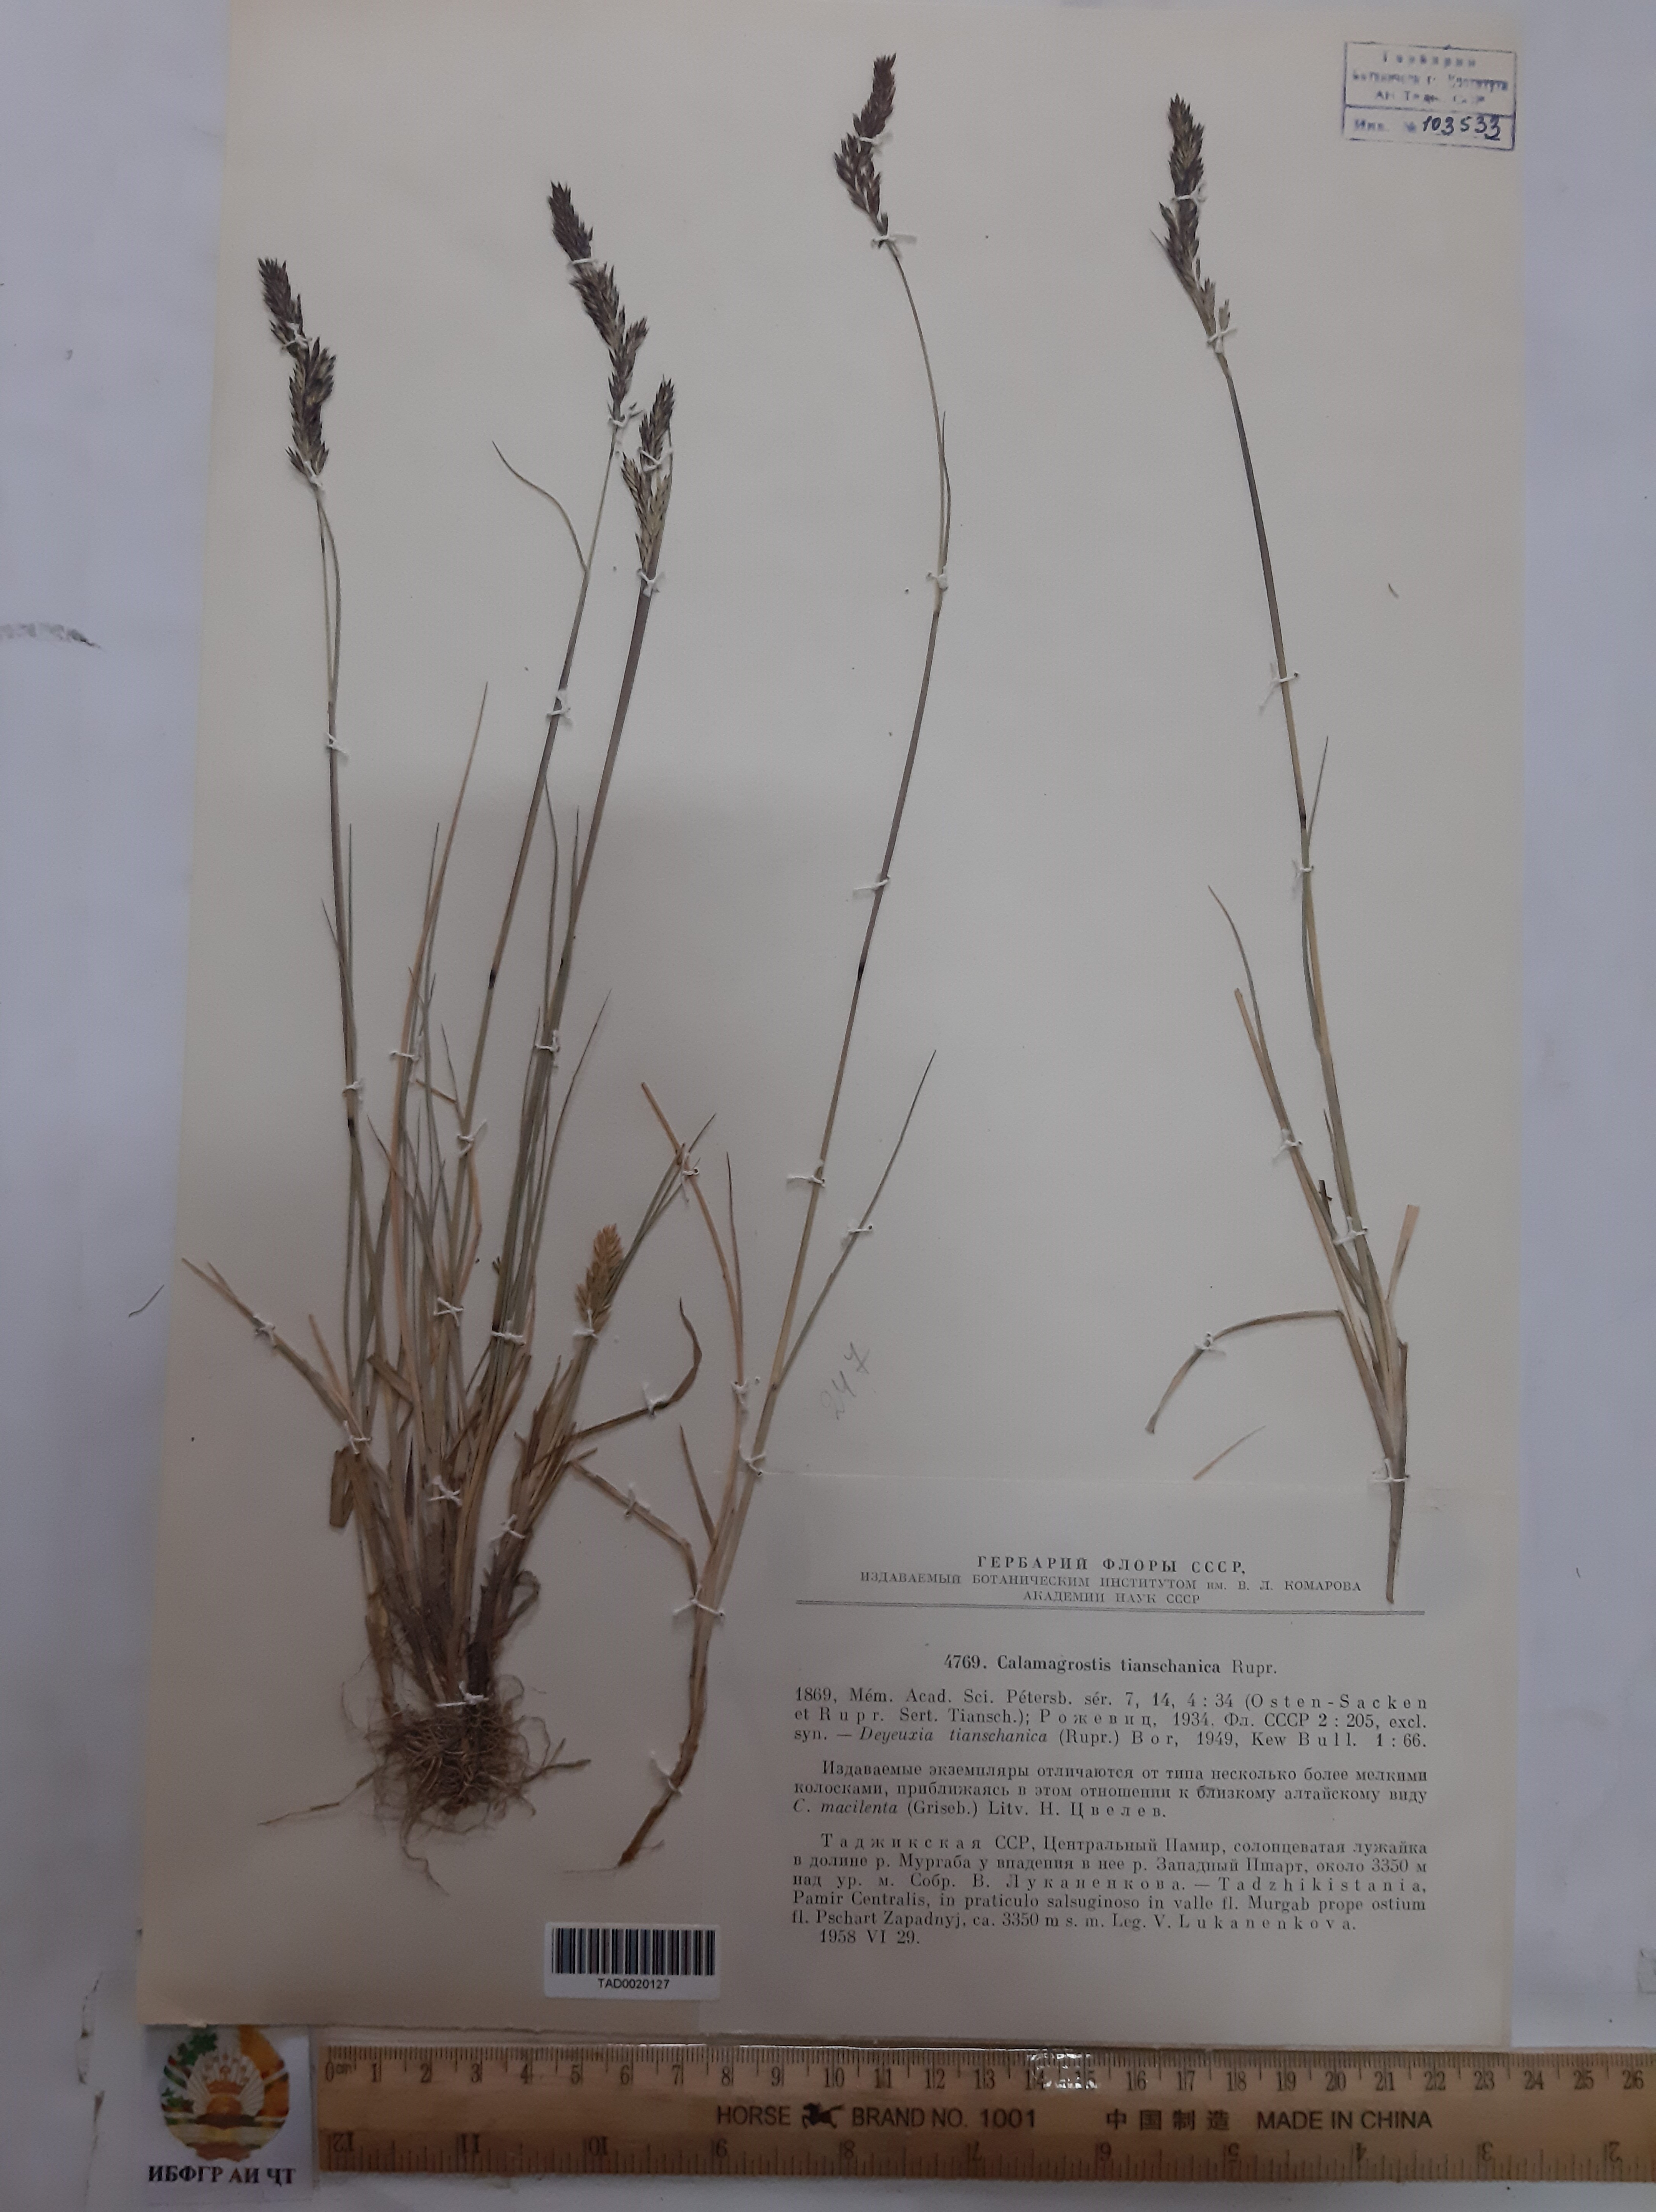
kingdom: Plantae
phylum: Tracheophyta
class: Liliopsida
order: Poales
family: Poaceae
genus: Calamagrostis
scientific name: Calamagrostis tianschanica
